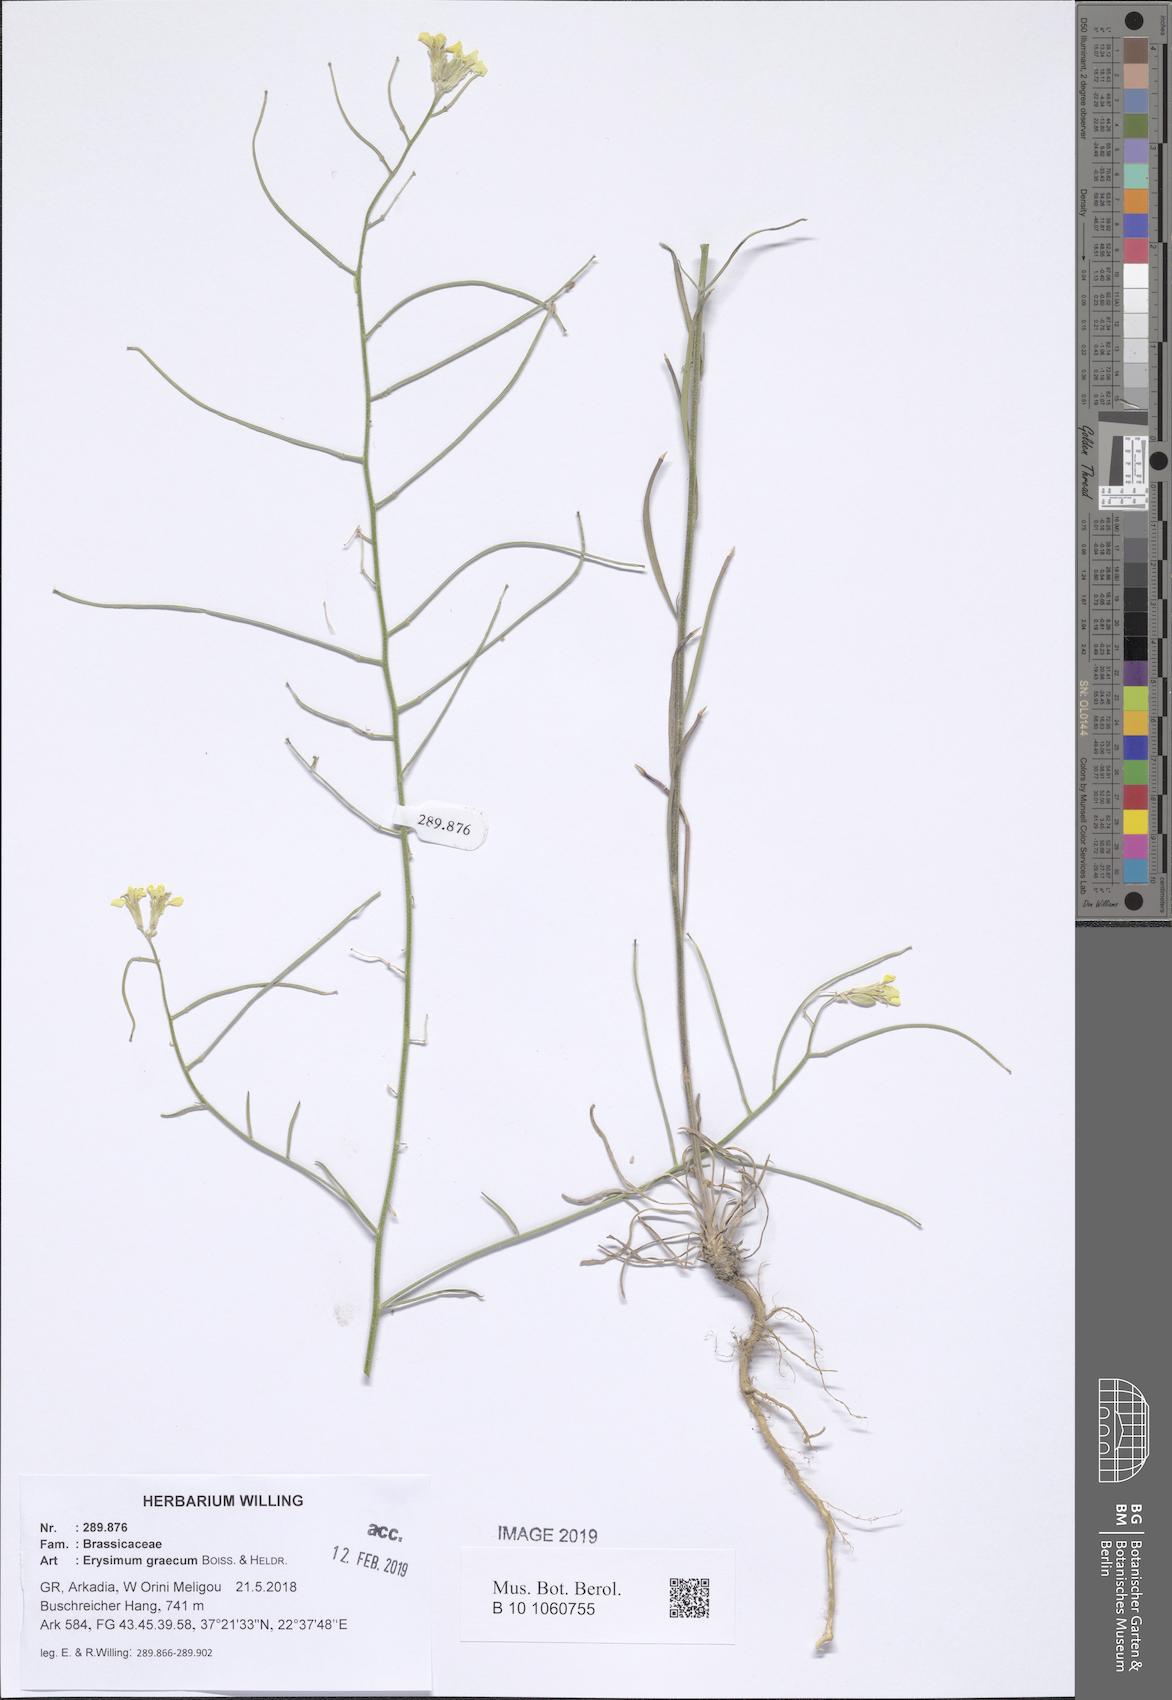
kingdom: Plantae
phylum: Tracheophyta
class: Magnoliopsida
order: Brassicales
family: Brassicaceae
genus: Erysimum
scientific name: Erysimum graecum
